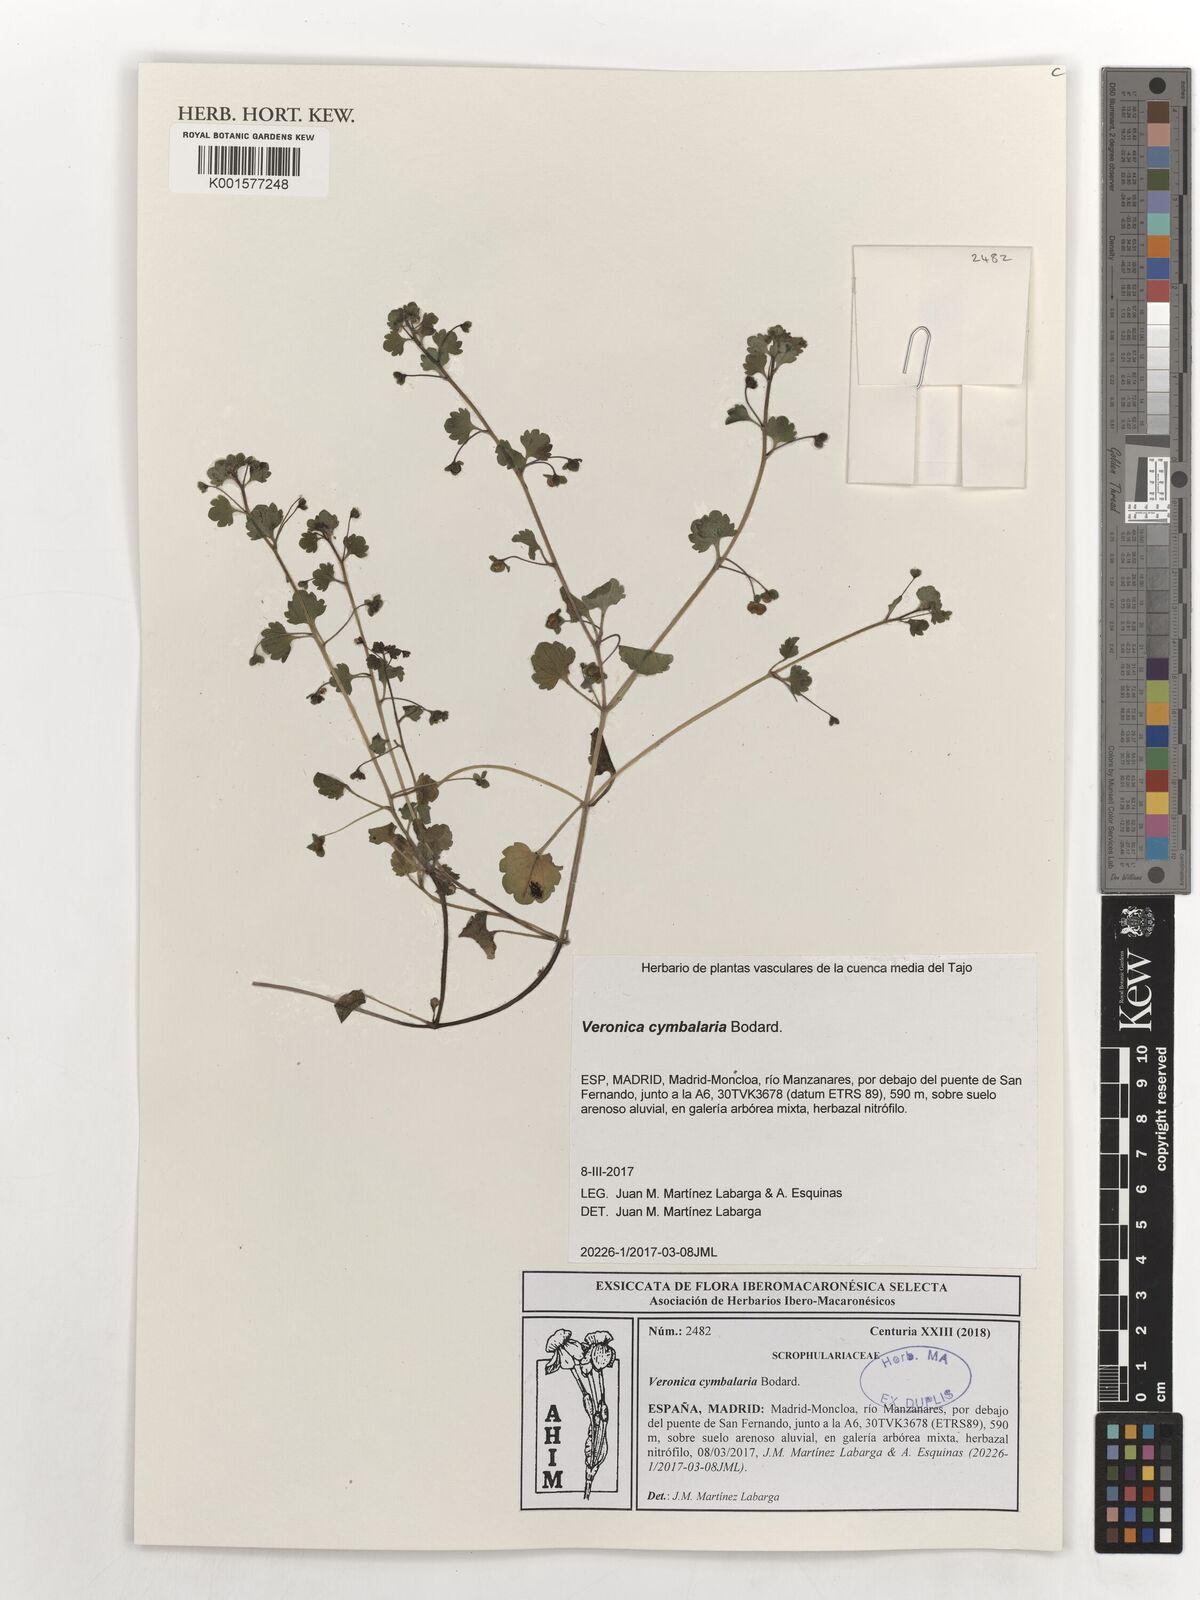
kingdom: Plantae
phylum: Tracheophyta
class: Magnoliopsida
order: Lamiales
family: Plantaginaceae
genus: Veronica
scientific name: Veronica cymbalaria
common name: Pale speedwell
